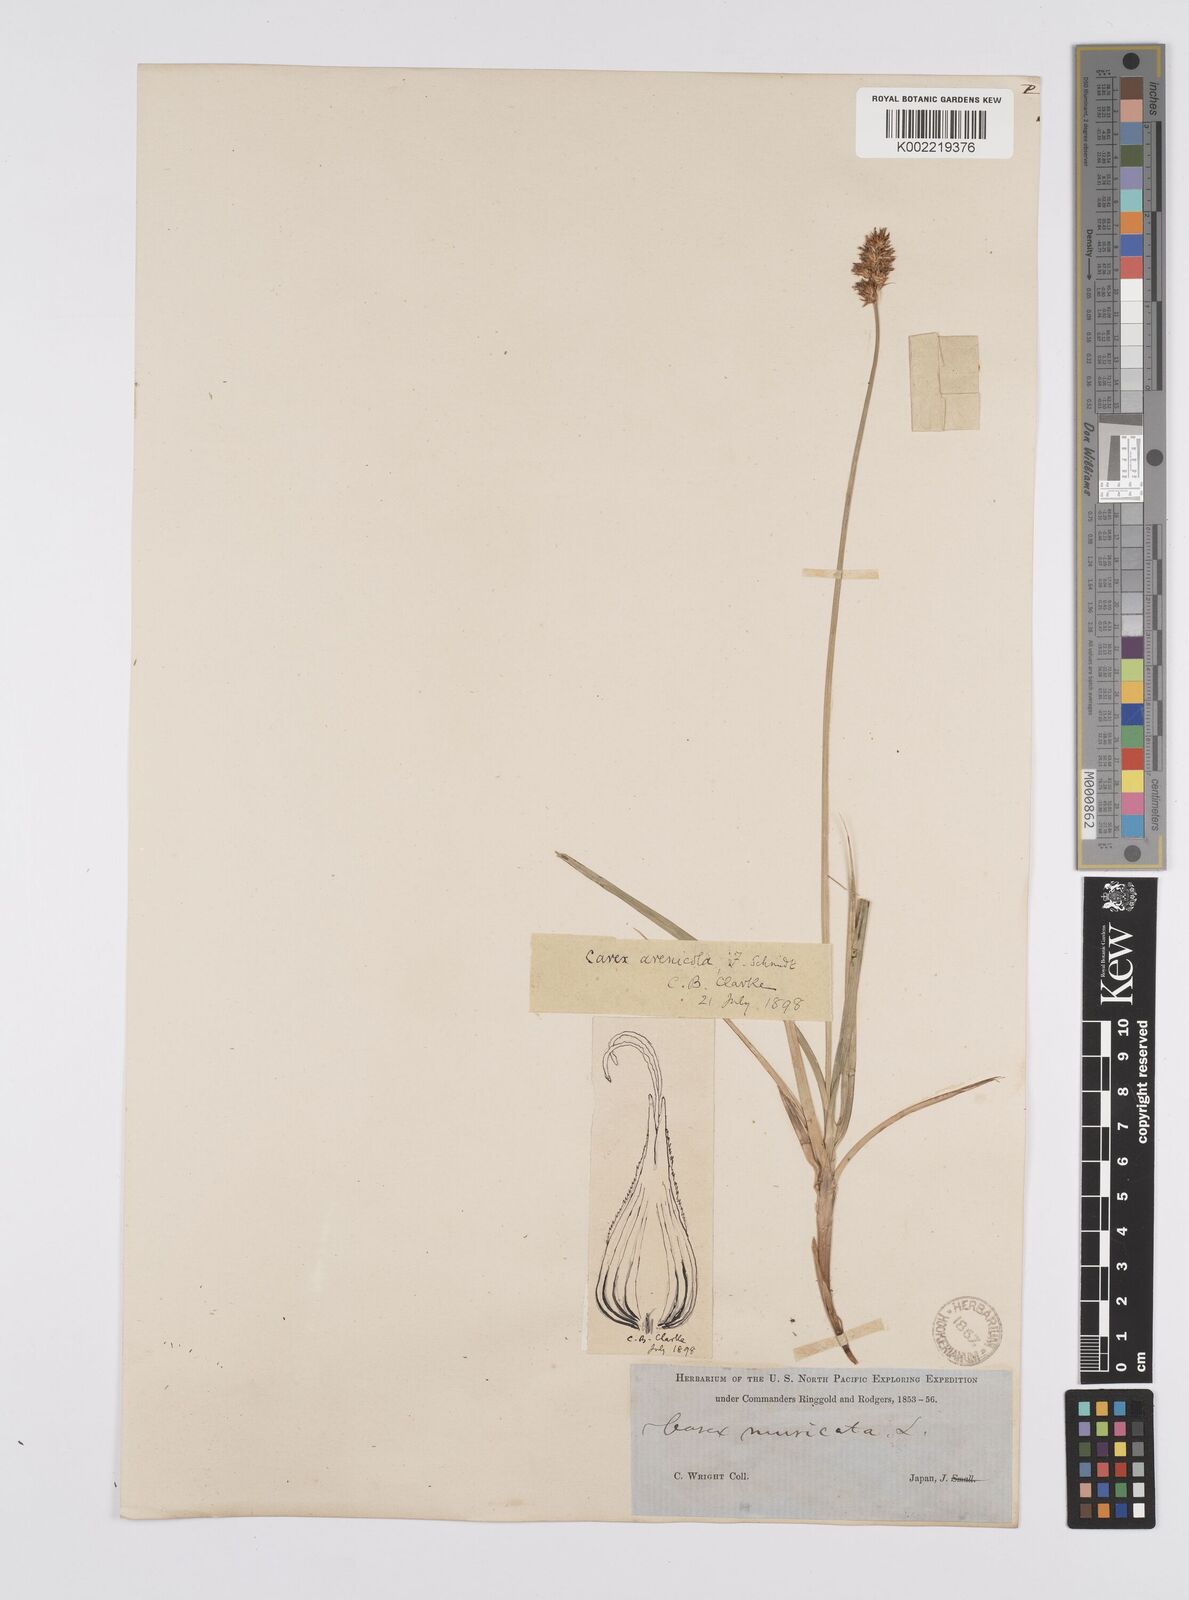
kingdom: Plantae
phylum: Tracheophyta
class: Liliopsida
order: Poales
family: Cyperaceae
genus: Carex
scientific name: Carex arenicola
